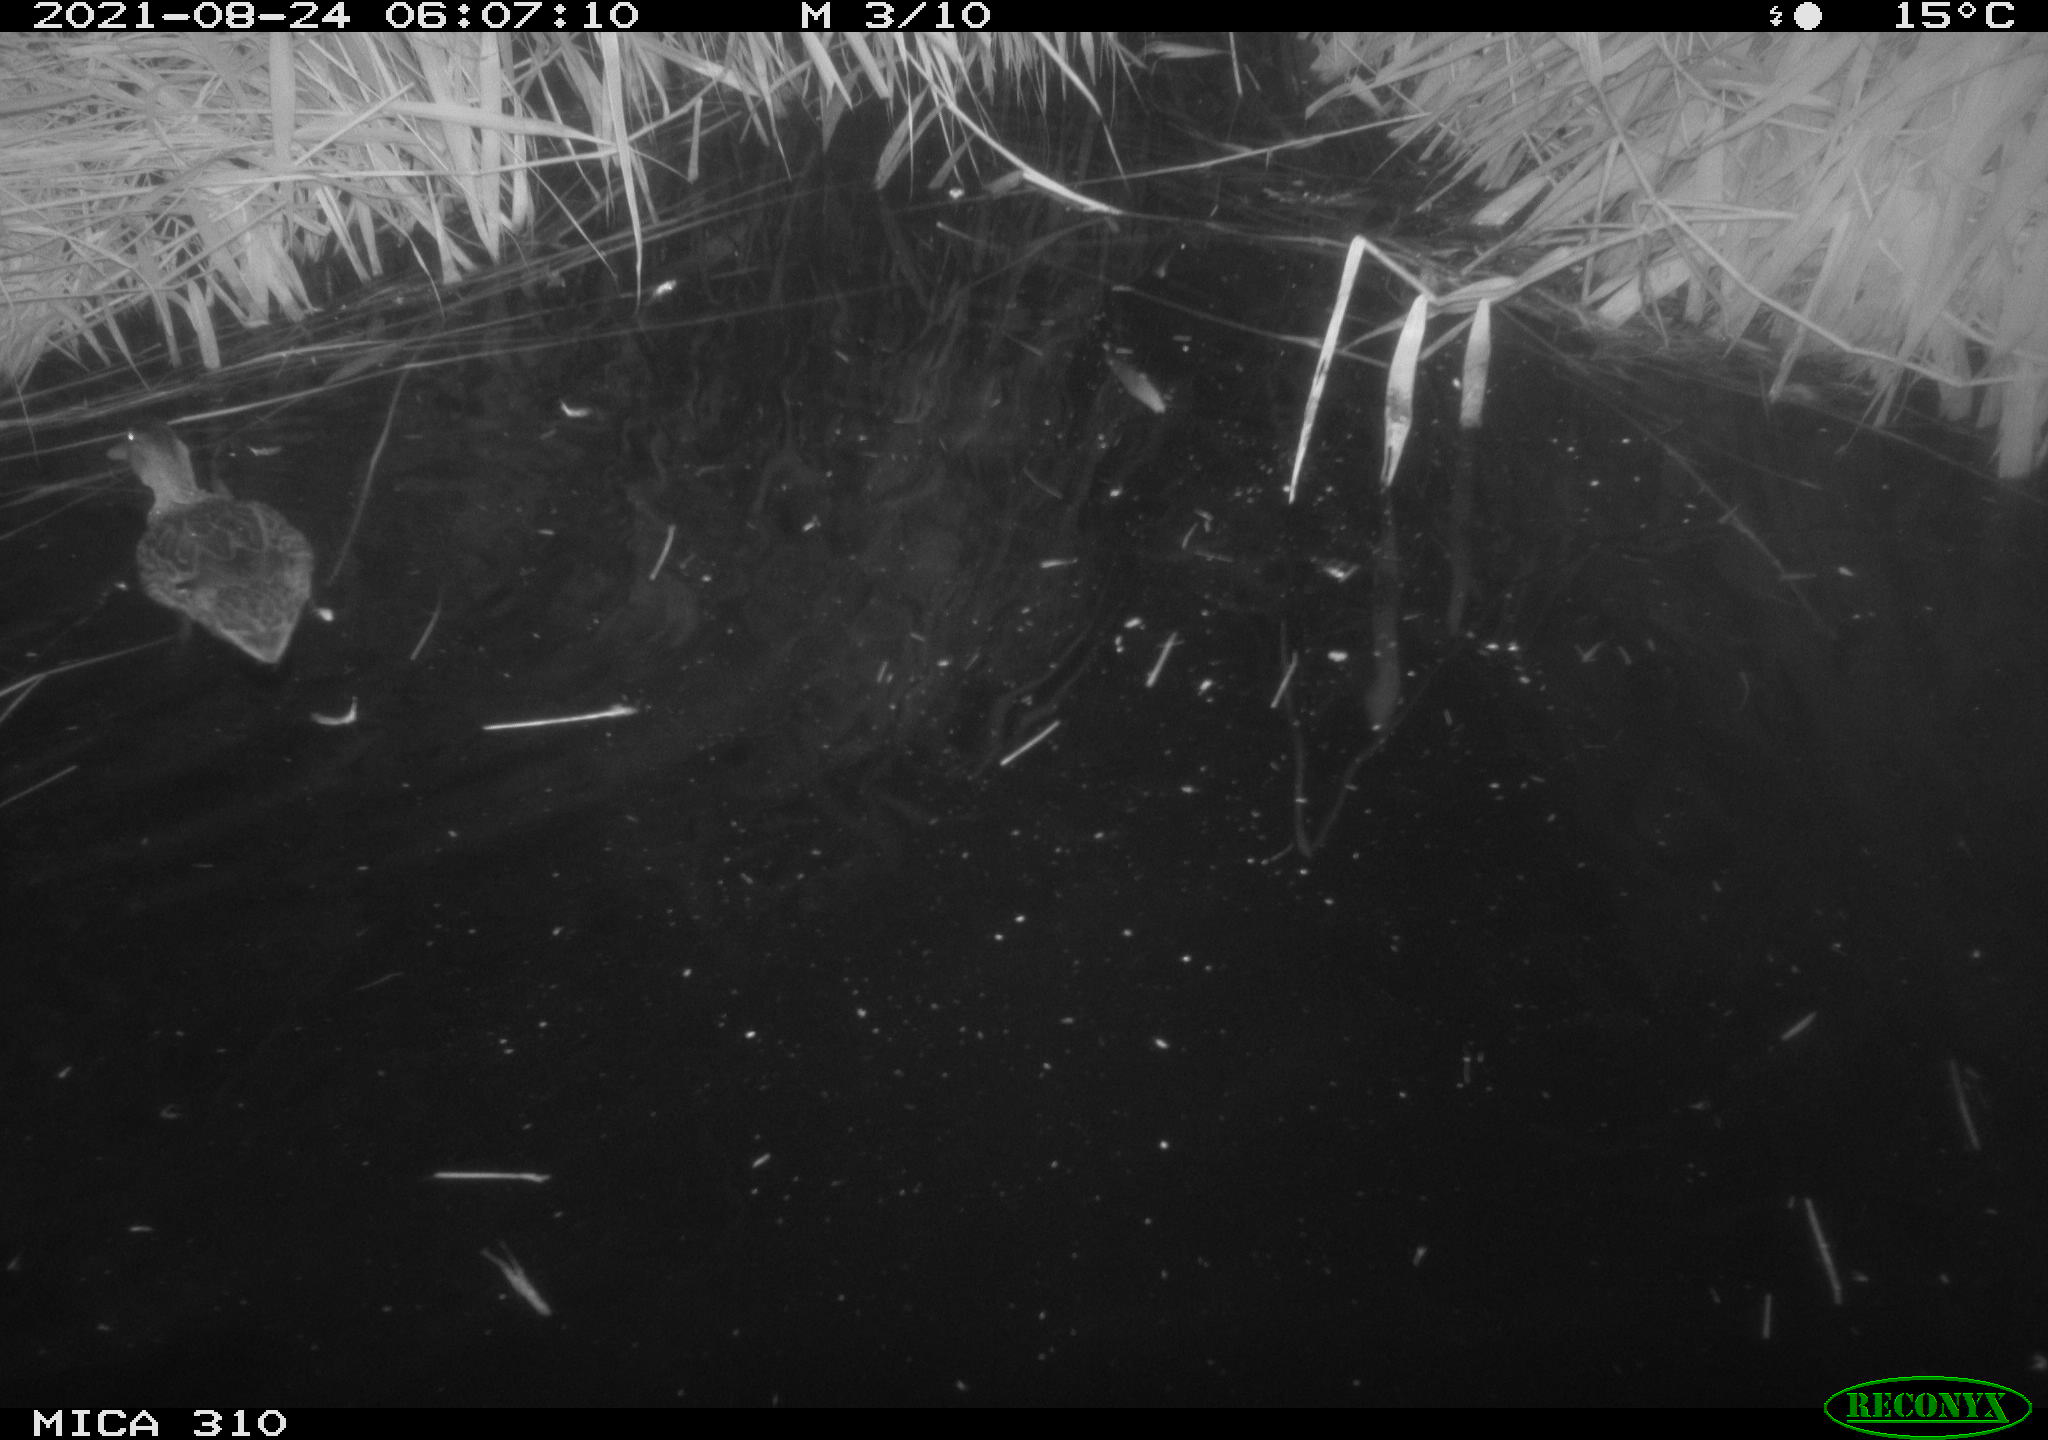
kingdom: Animalia
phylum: Chordata
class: Aves
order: Anseriformes
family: Anatidae
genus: Anas
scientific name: Anas platyrhynchos
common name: Mallard
